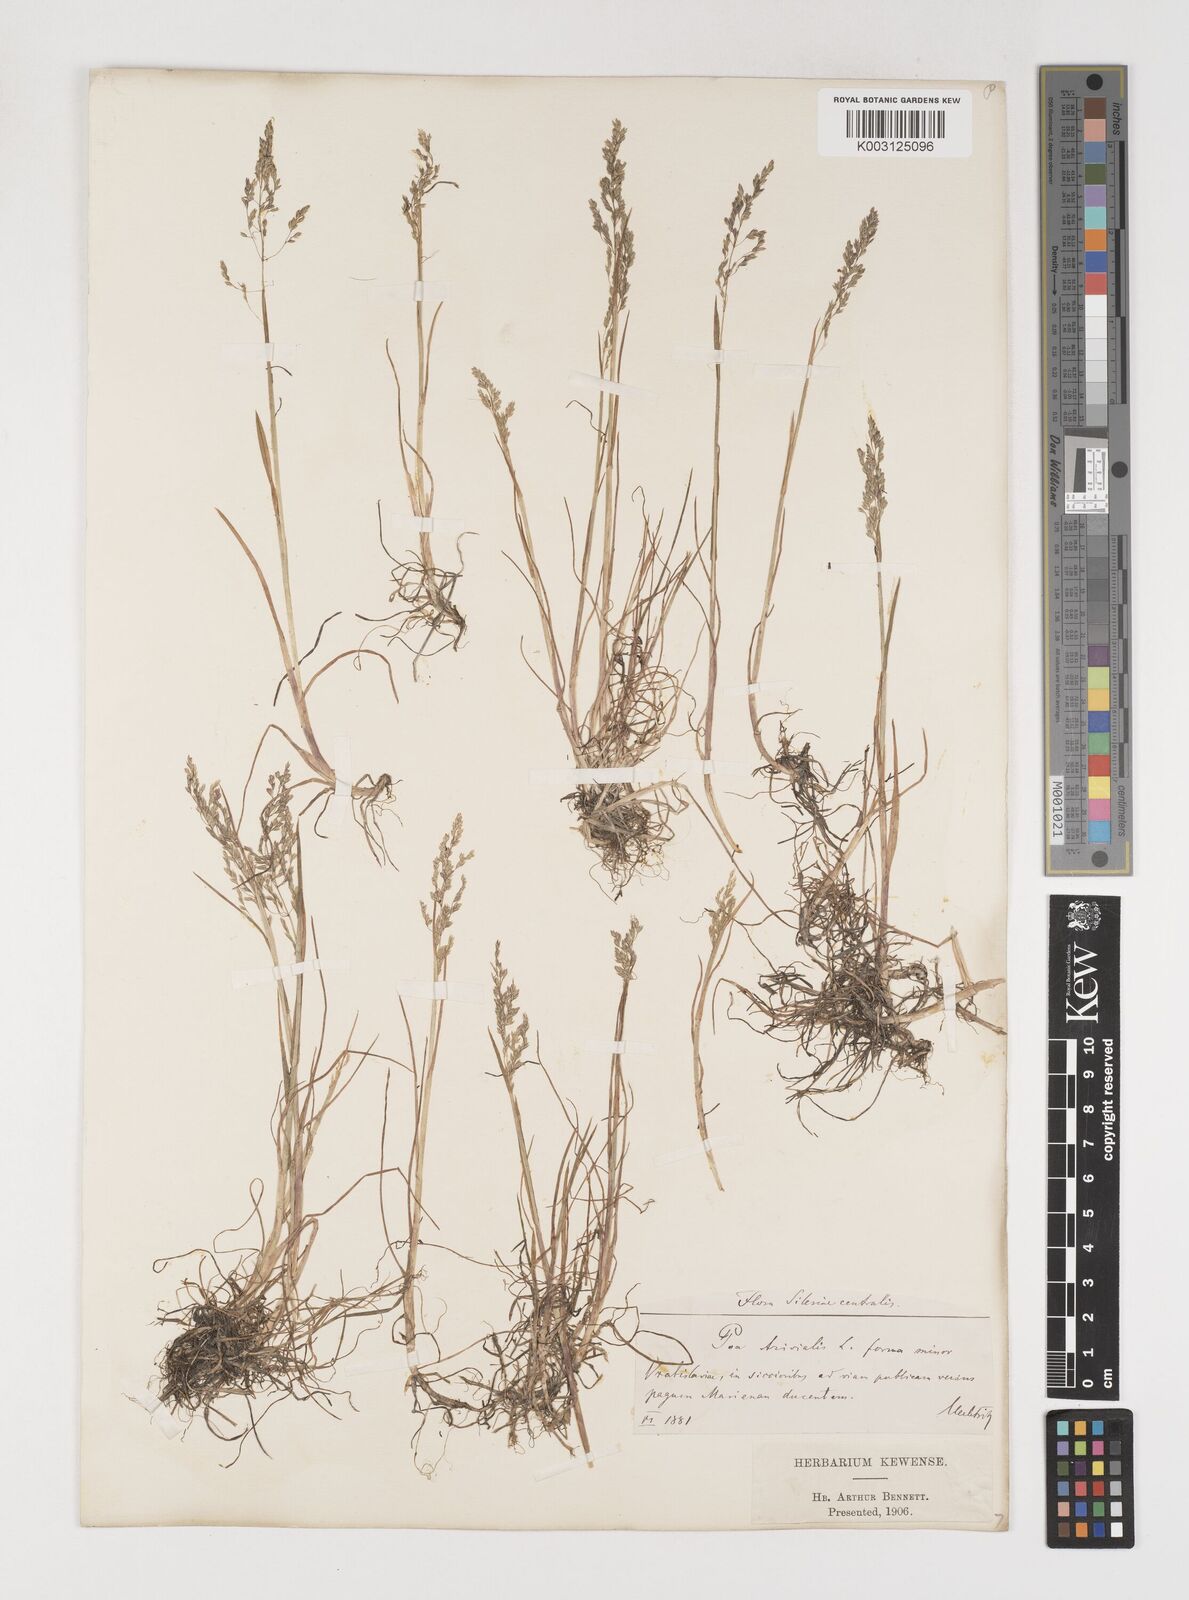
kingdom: Plantae
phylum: Tracheophyta
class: Liliopsida
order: Poales
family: Poaceae
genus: Poa
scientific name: Poa trivialis
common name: Rough bluegrass
